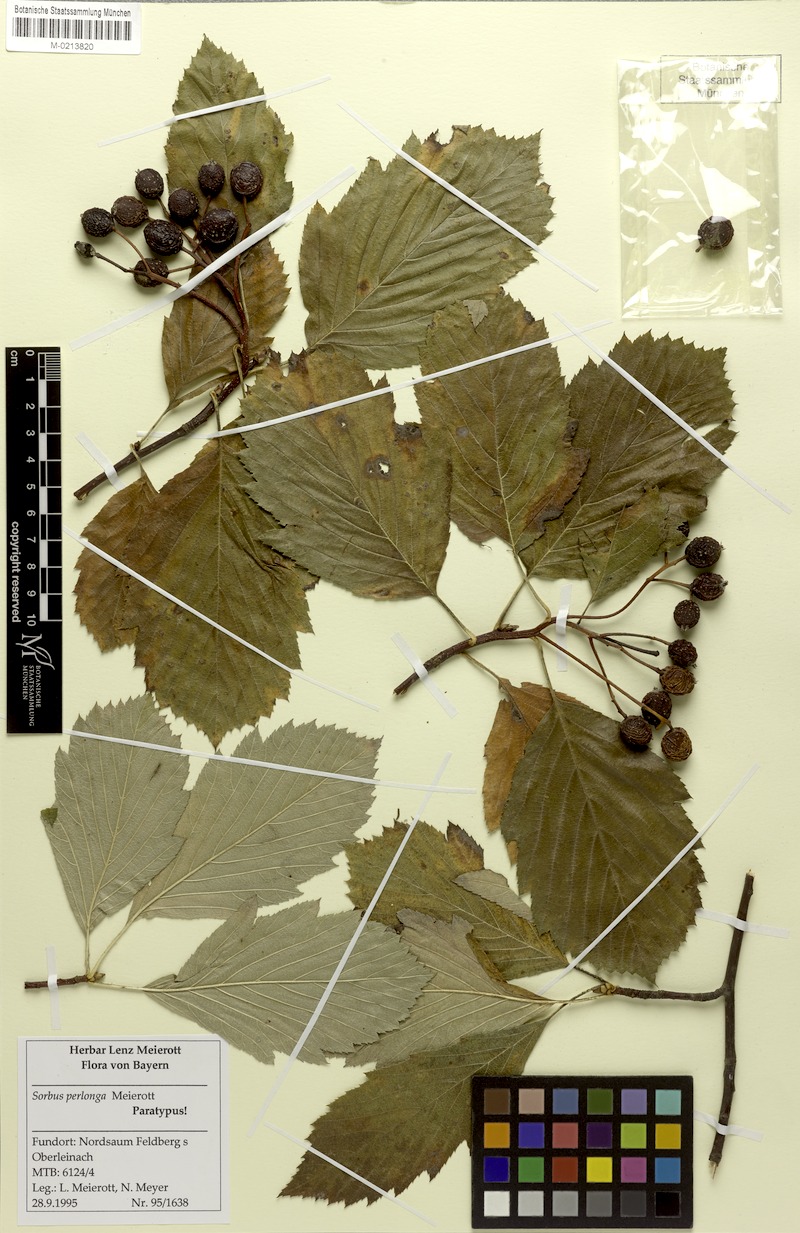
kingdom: Plantae
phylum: Tracheophyta
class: Magnoliopsida
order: Rosales
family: Rosaceae
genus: Karpatiosorbus
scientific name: Karpatiosorbus perlonga
